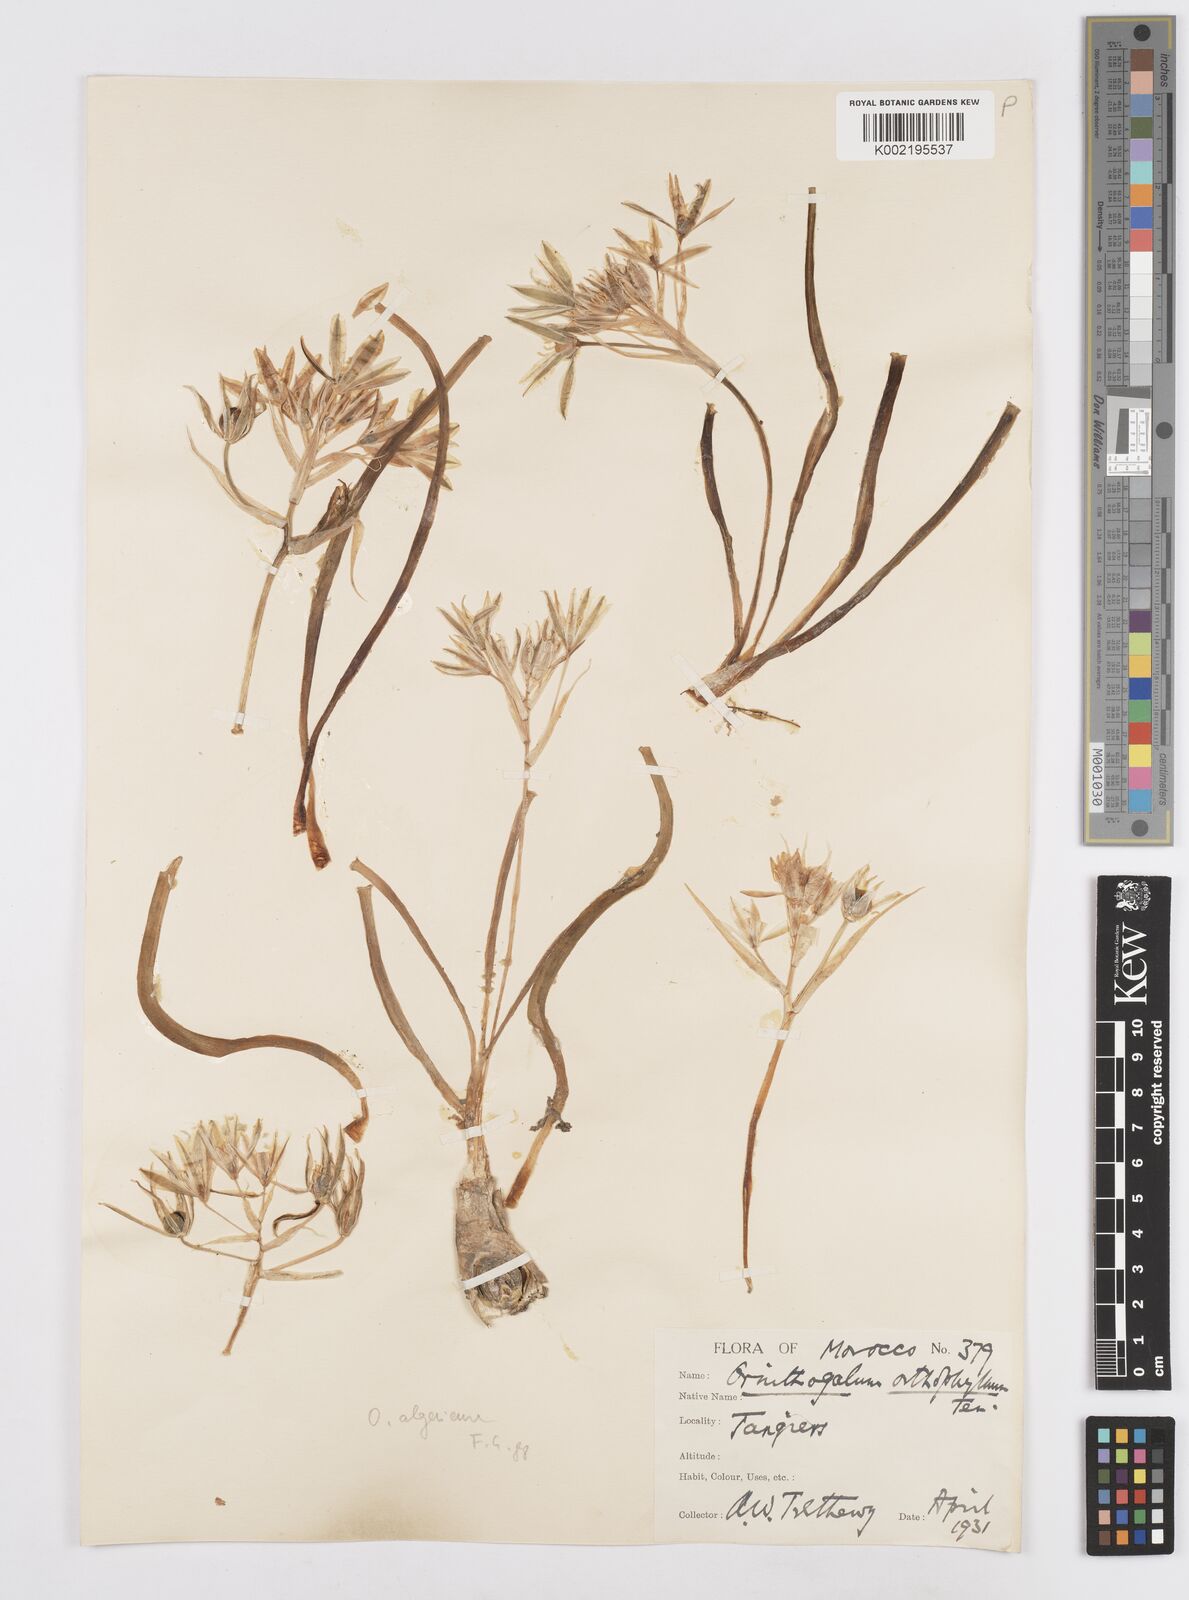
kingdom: Plantae
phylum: Tracheophyta
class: Liliopsida
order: Asparagales
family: Asparagaceae
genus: Ornithogalum
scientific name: Ornithogalum baeticum
